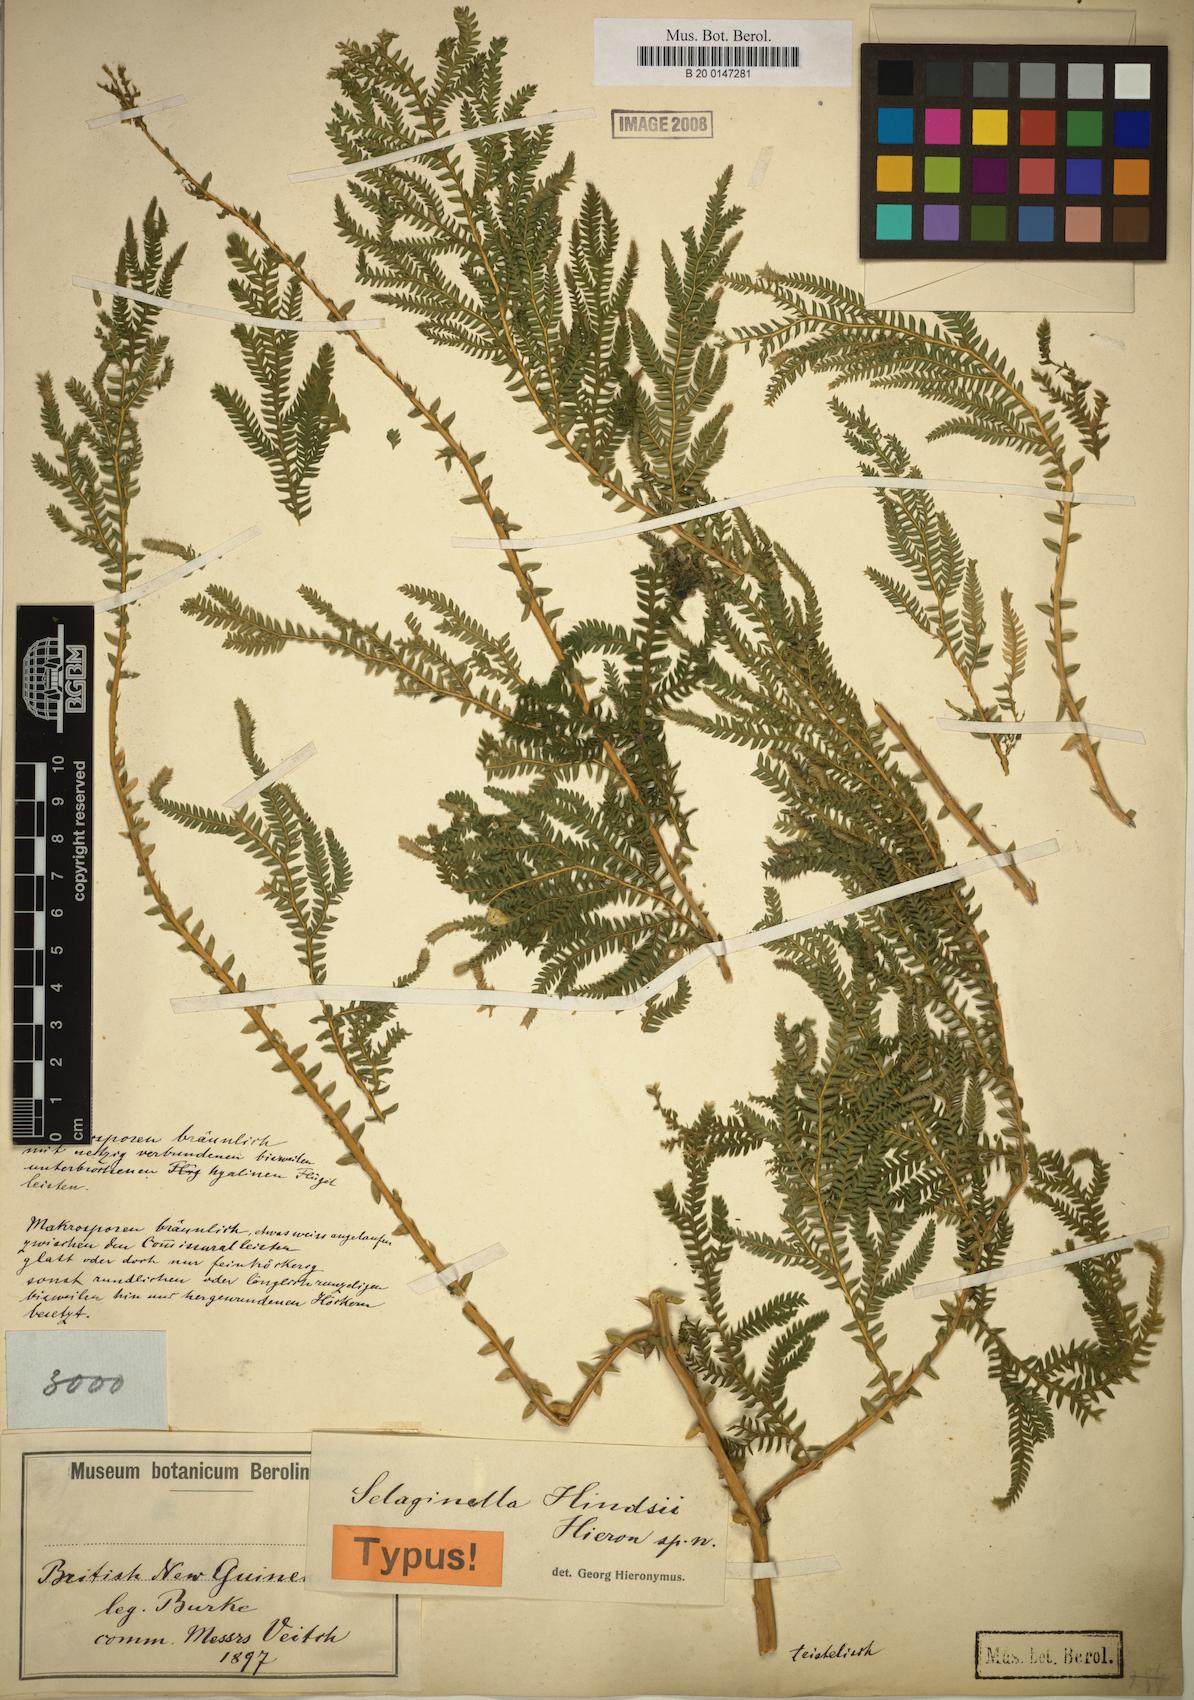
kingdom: Plantae
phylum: Tracheophyta
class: Lycopodiopsida
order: Selaginellales
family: Selaginellaceae
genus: Selaginella
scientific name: Selaginella hindsii
